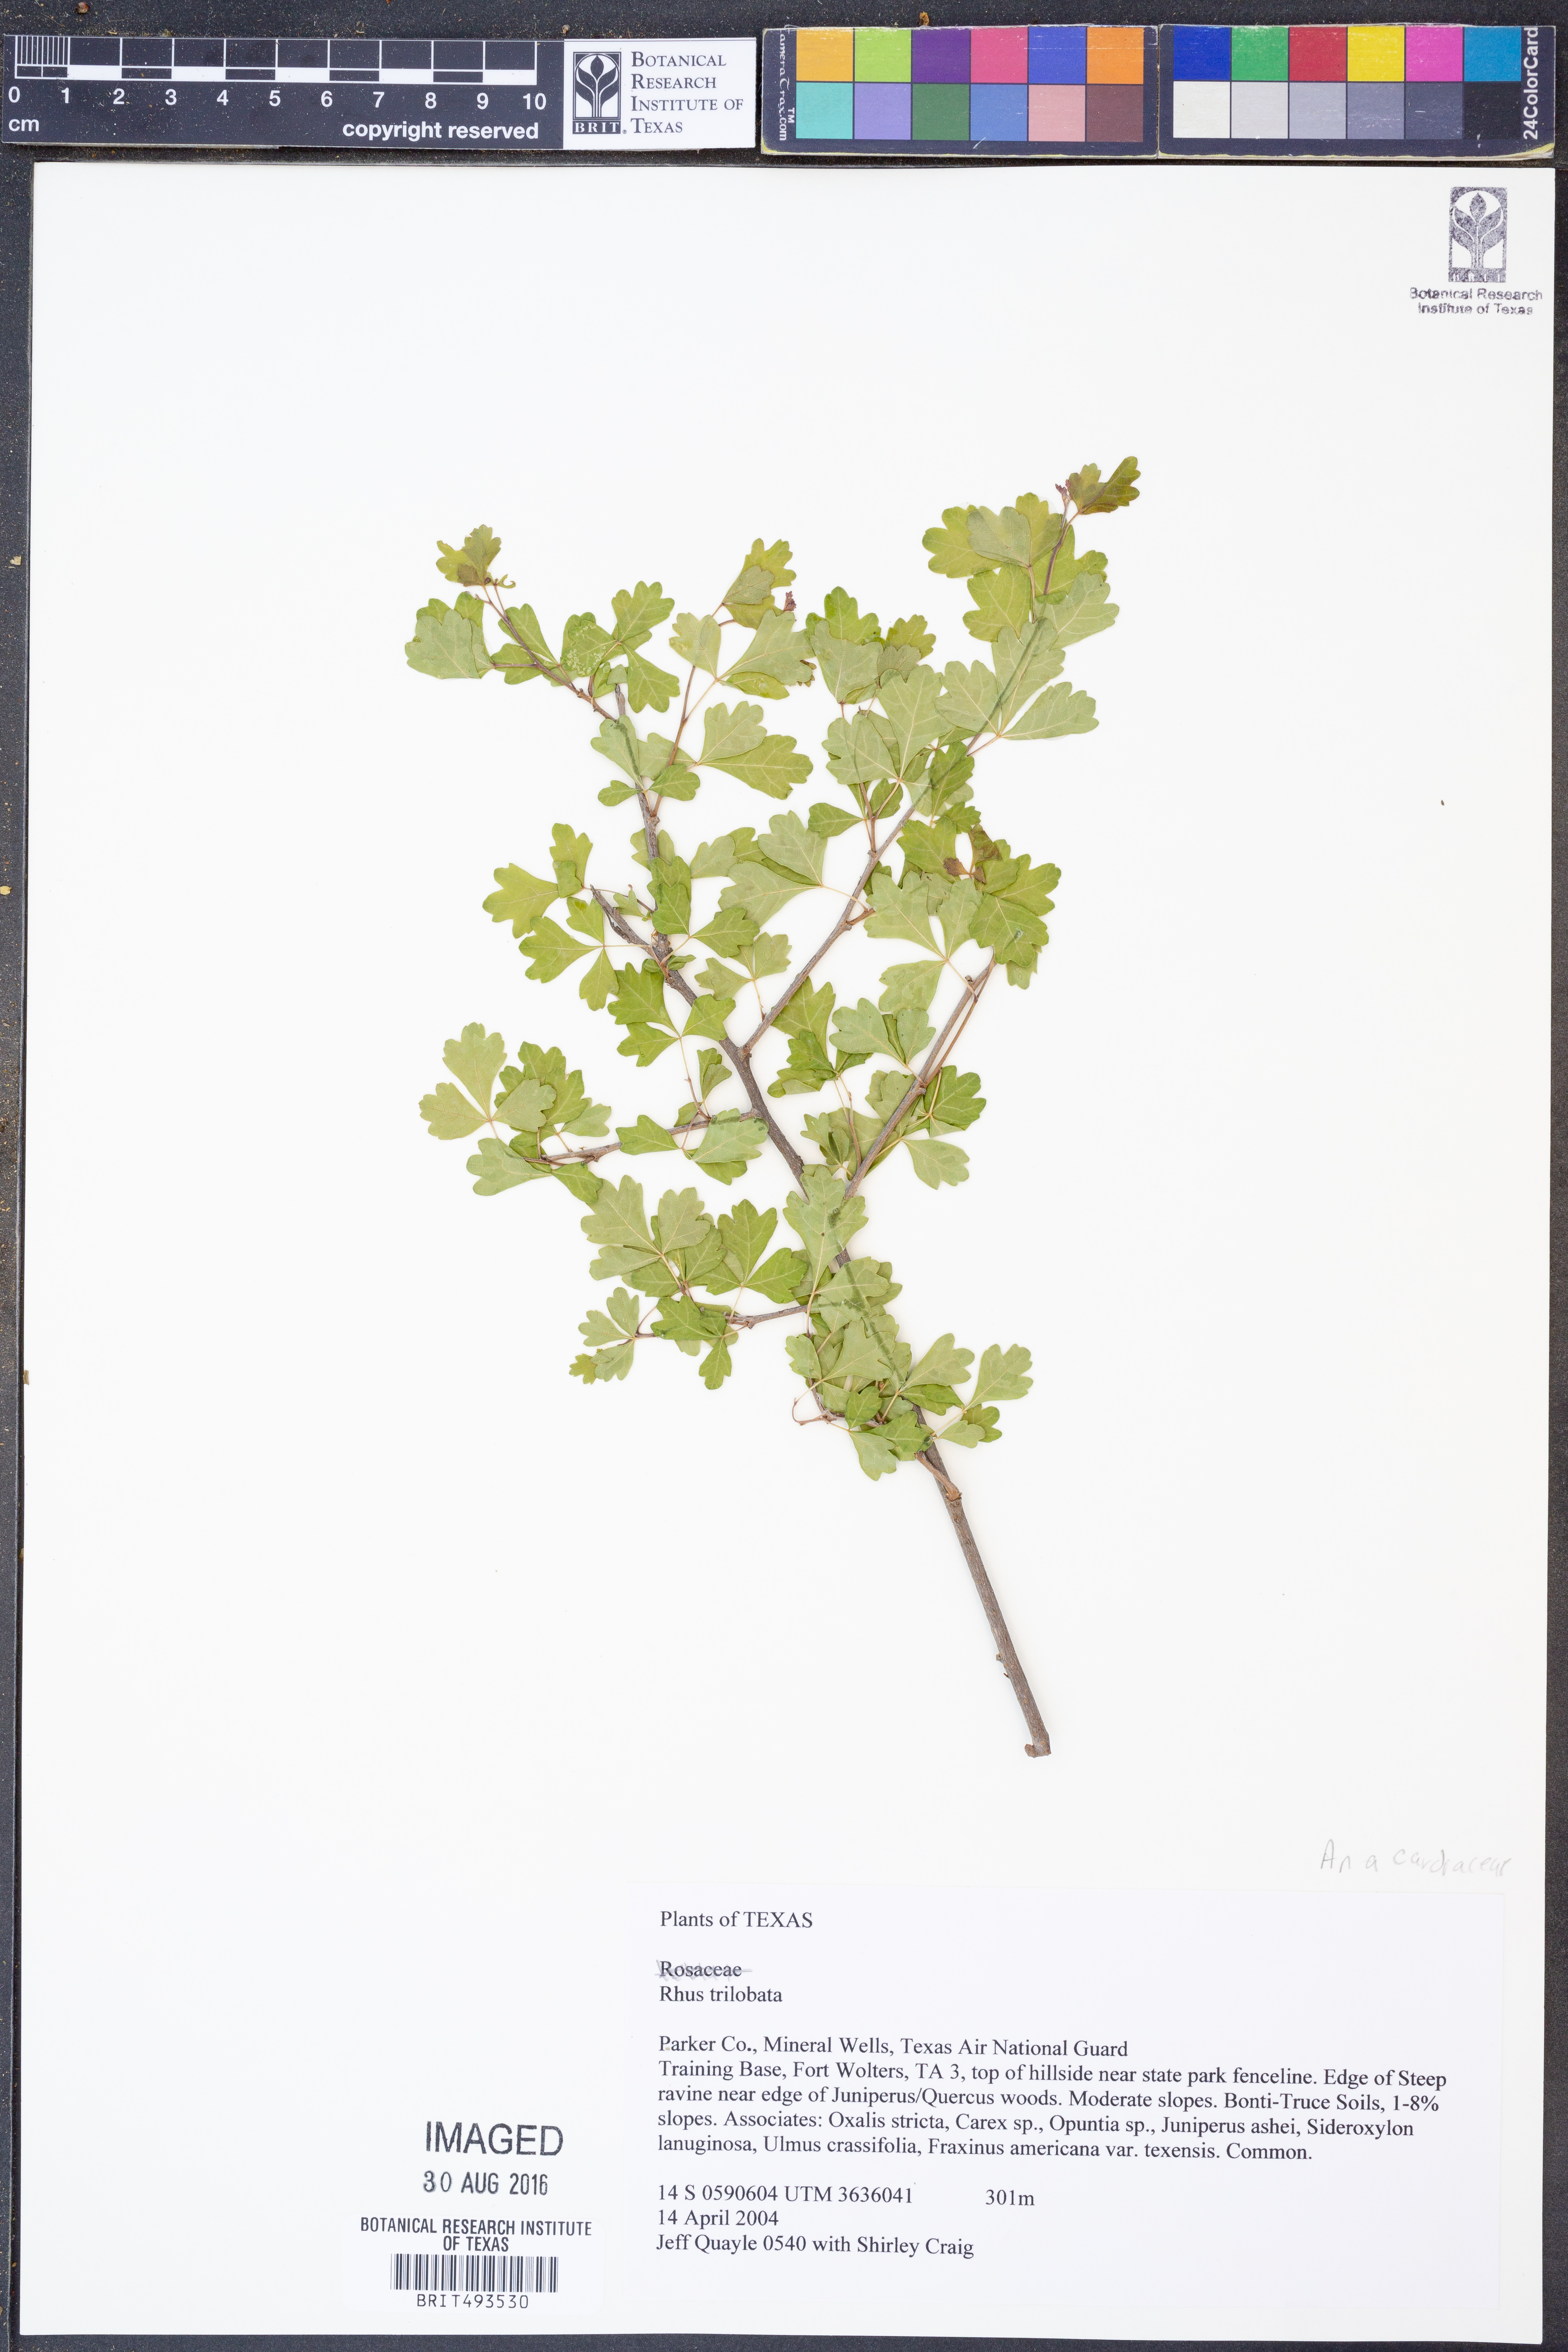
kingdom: Plantae
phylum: Tracheophyta
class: Magnoliopsida
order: Sapindales
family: Anacardiaceae
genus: Rhus
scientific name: Rhus trilobata
